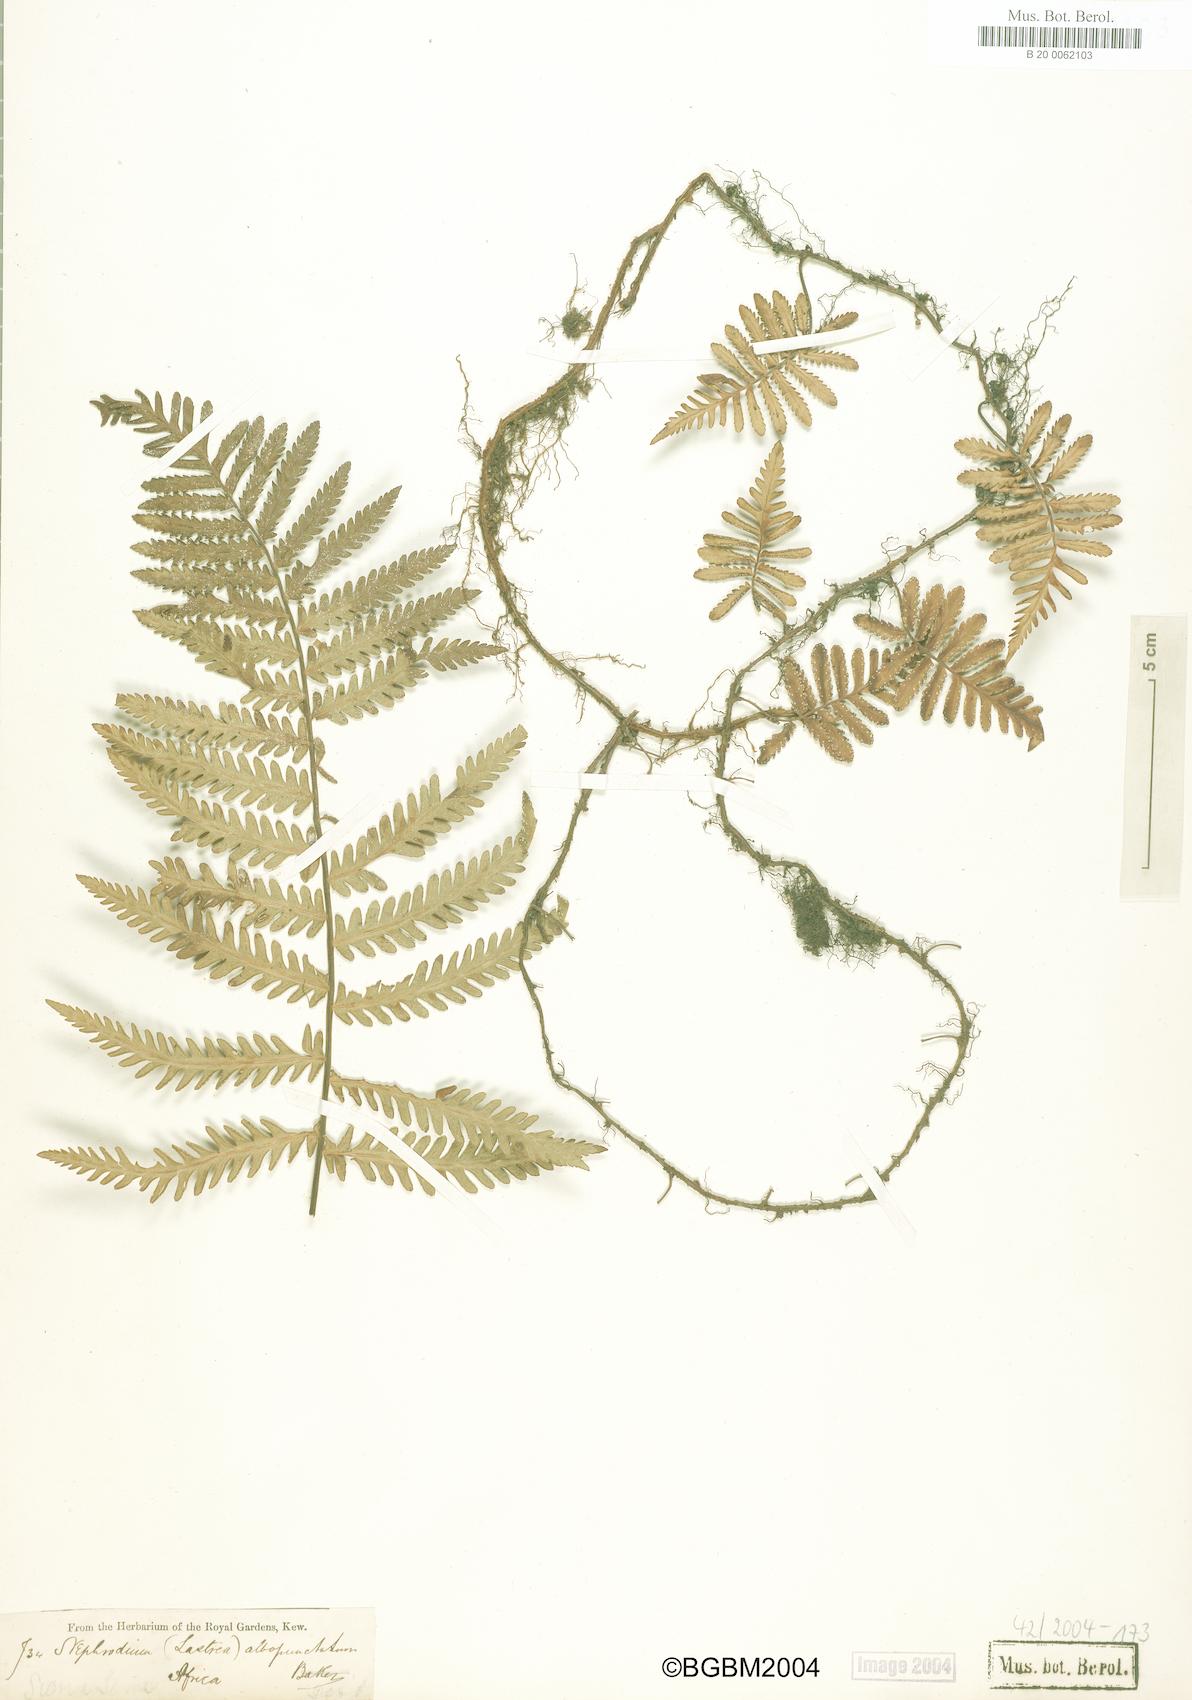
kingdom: Plantae
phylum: Tracheophyta
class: Polypodiopsida
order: Polypodiales
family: Tectariaceae
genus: Arthropteris
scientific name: Arthropteris orientalis
